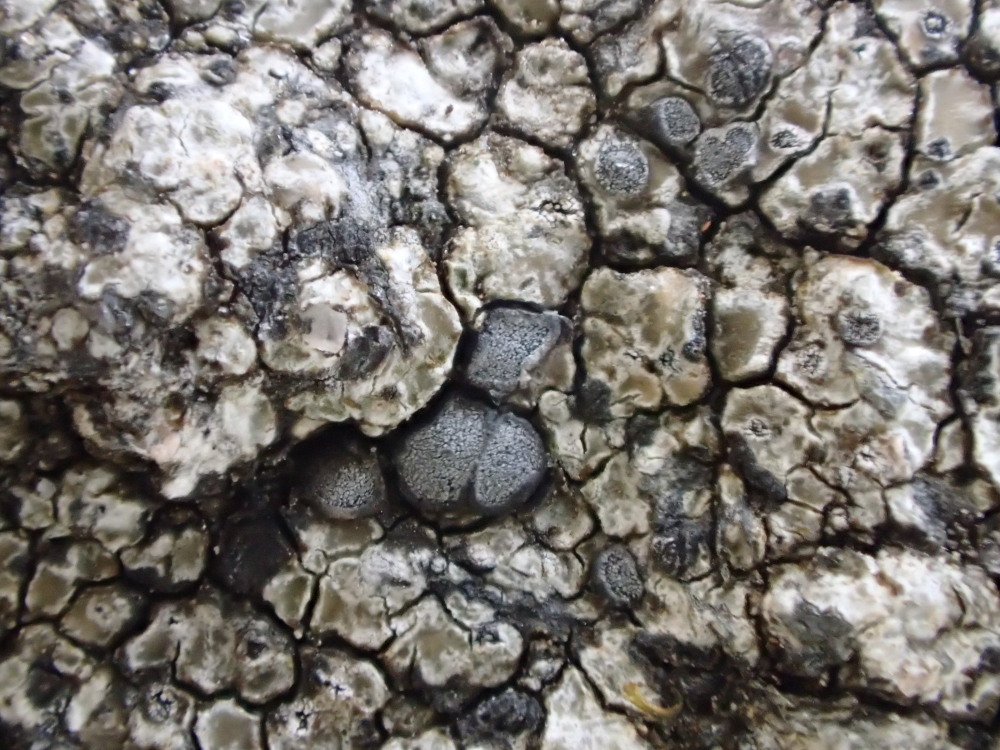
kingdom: Fungi
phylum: Ascomycota
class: Lecanoromycetes
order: Lecideales
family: Lecideaceae
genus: Lecidea
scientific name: Lecidea fuscoatra
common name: rudret skivelav
